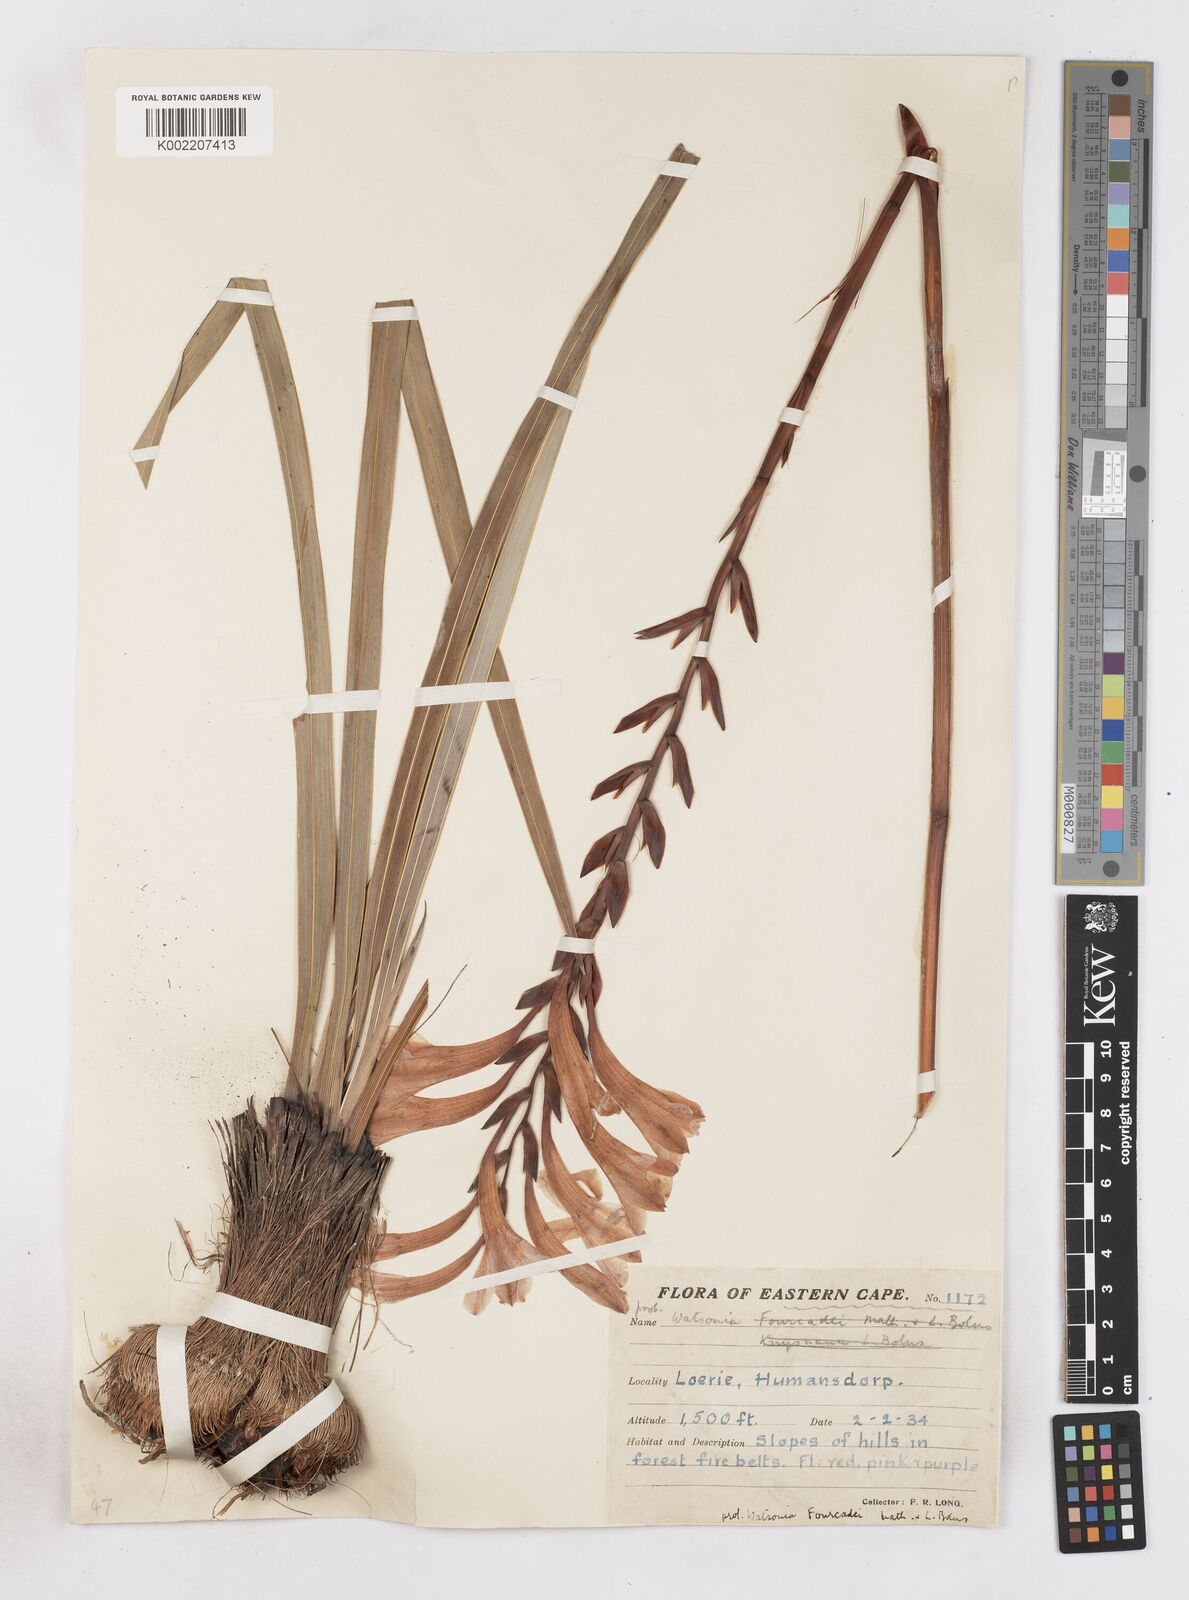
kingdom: Plantae
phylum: Tracheophyta
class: Liliopsida
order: Asparagales
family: Iridaceae
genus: Watsonia
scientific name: Watsonia pillansii
